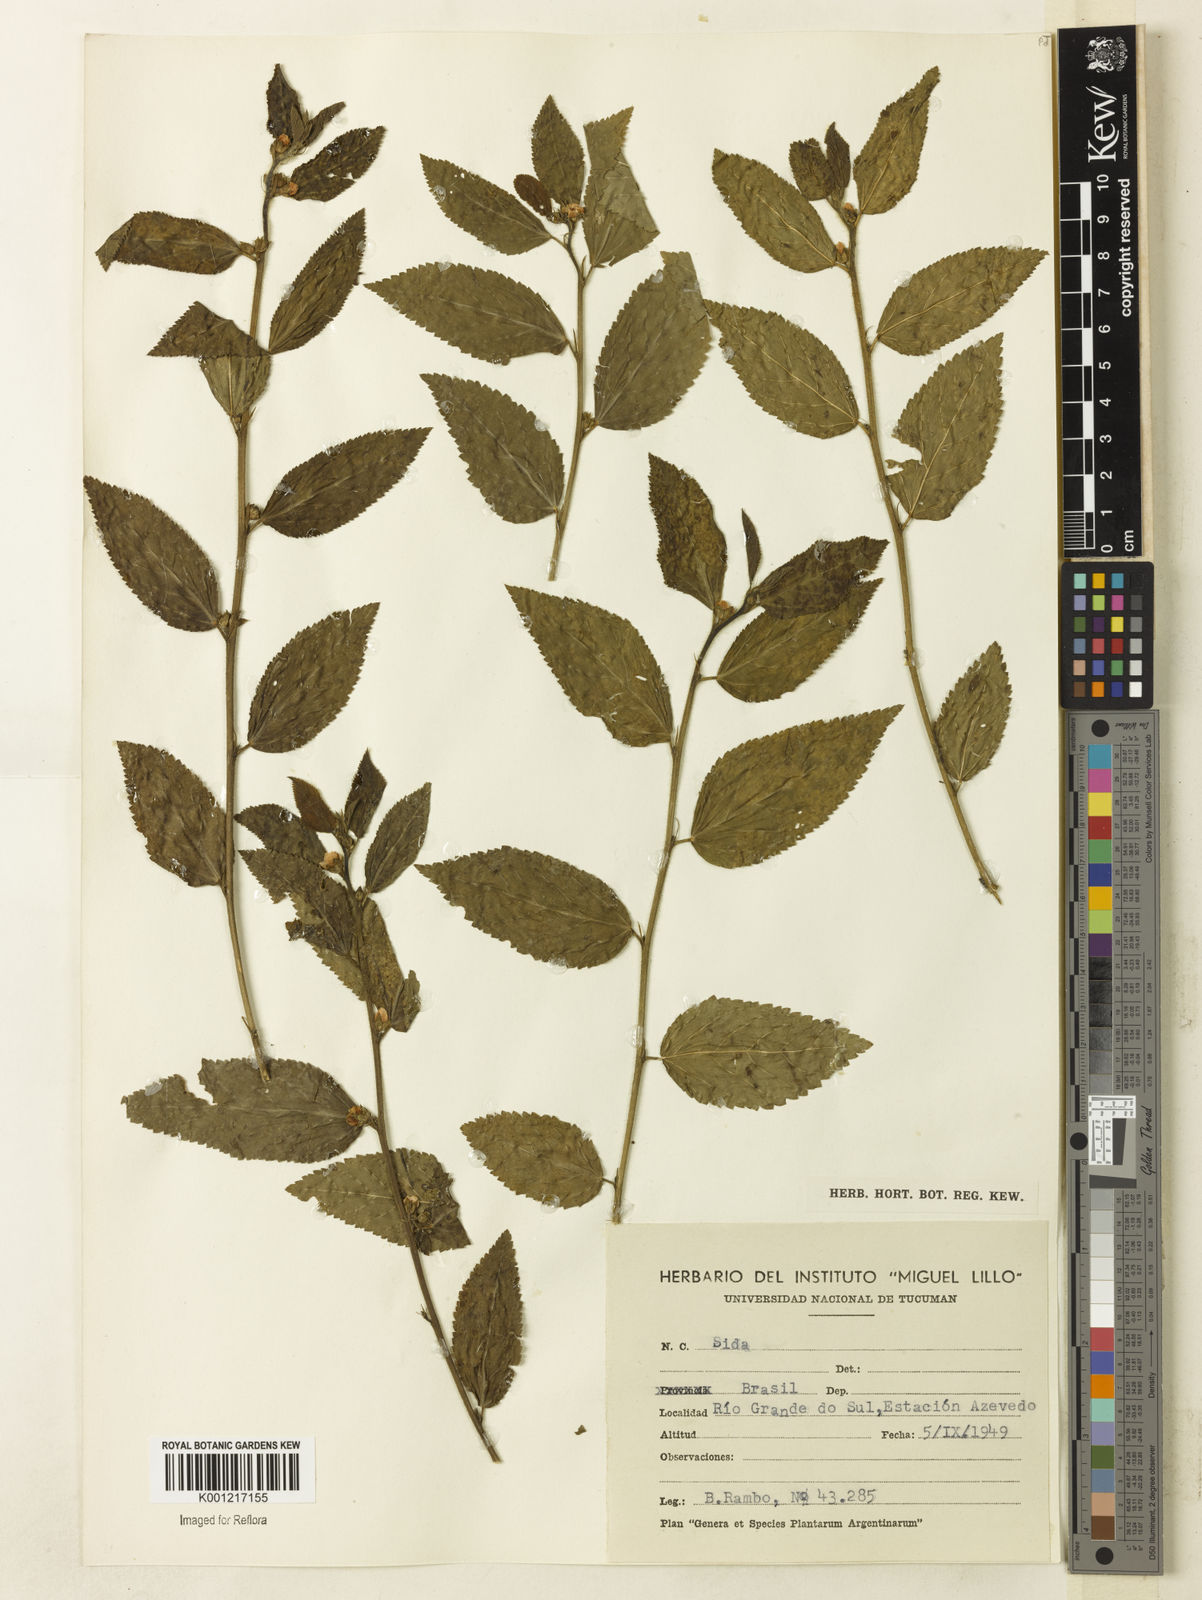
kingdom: Plantae
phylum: Tracheophyta
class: Magnoliopsida
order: Malvales
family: Malvaceae
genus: Sida
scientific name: Sida
